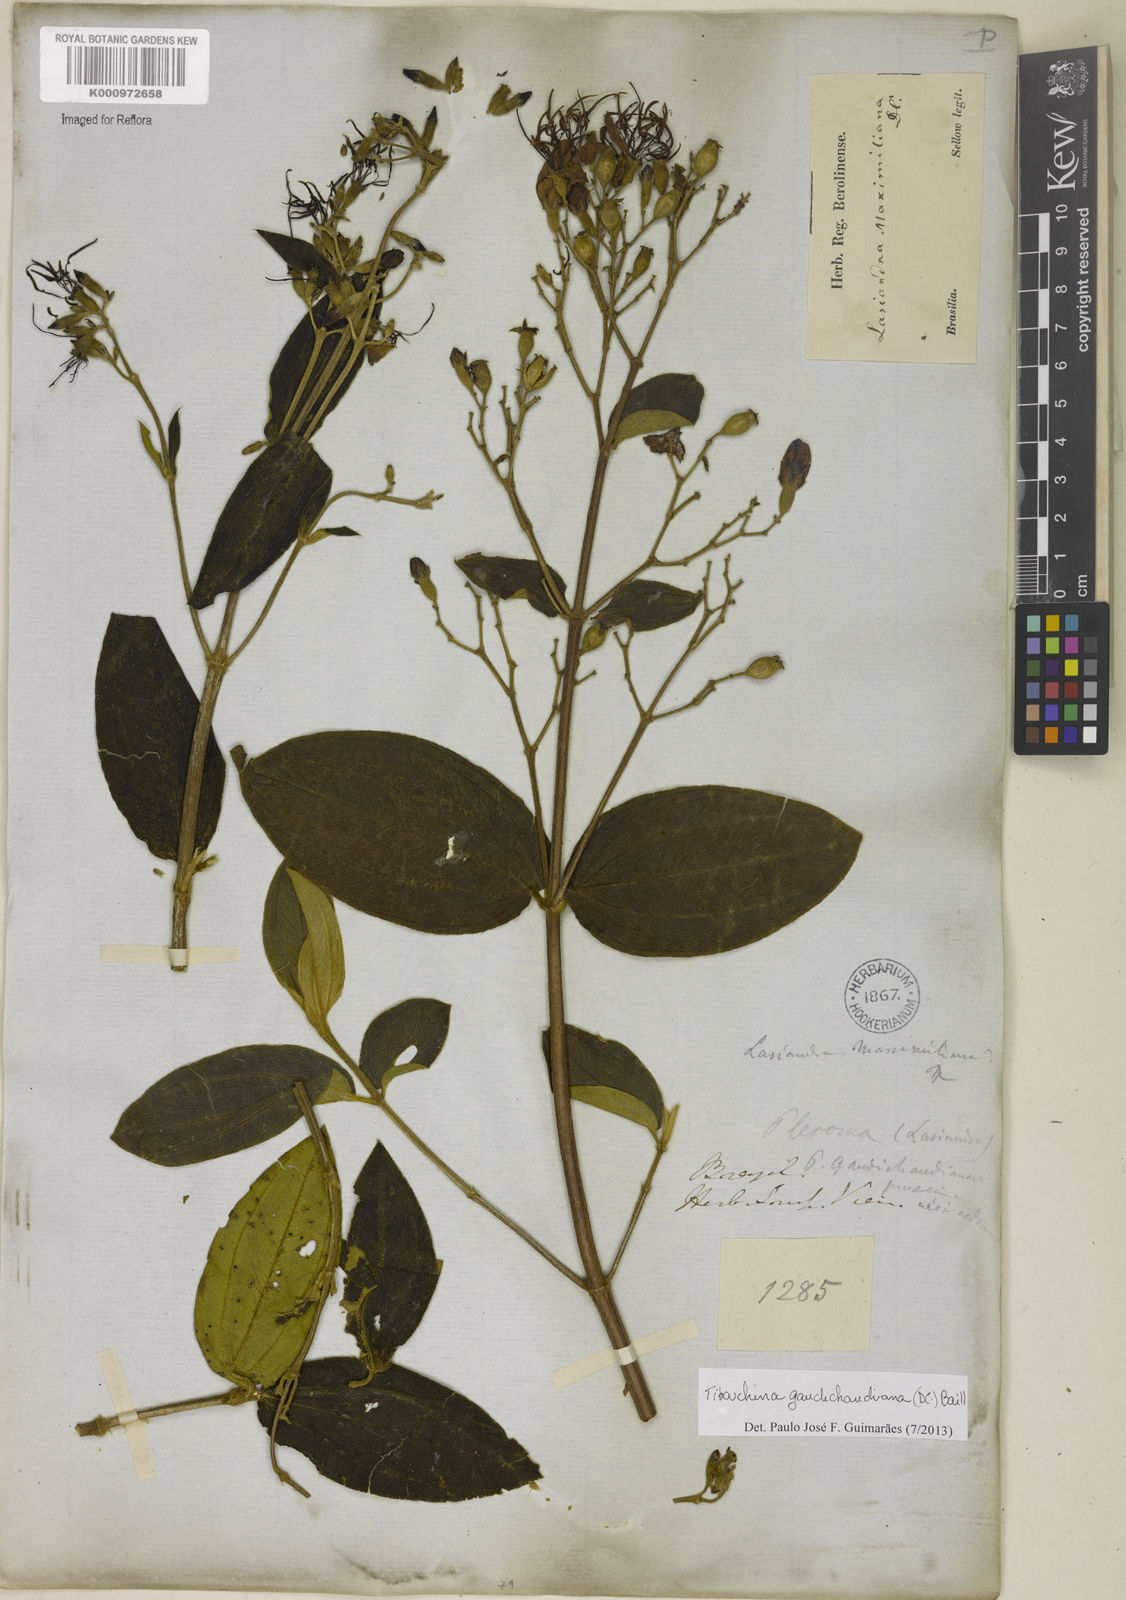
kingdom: Plantae
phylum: Tracheophyta
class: Magnoliopsida
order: Myrtales
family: Melastomataceae
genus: Pleroma
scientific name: Pleroma gaudichaudianum
